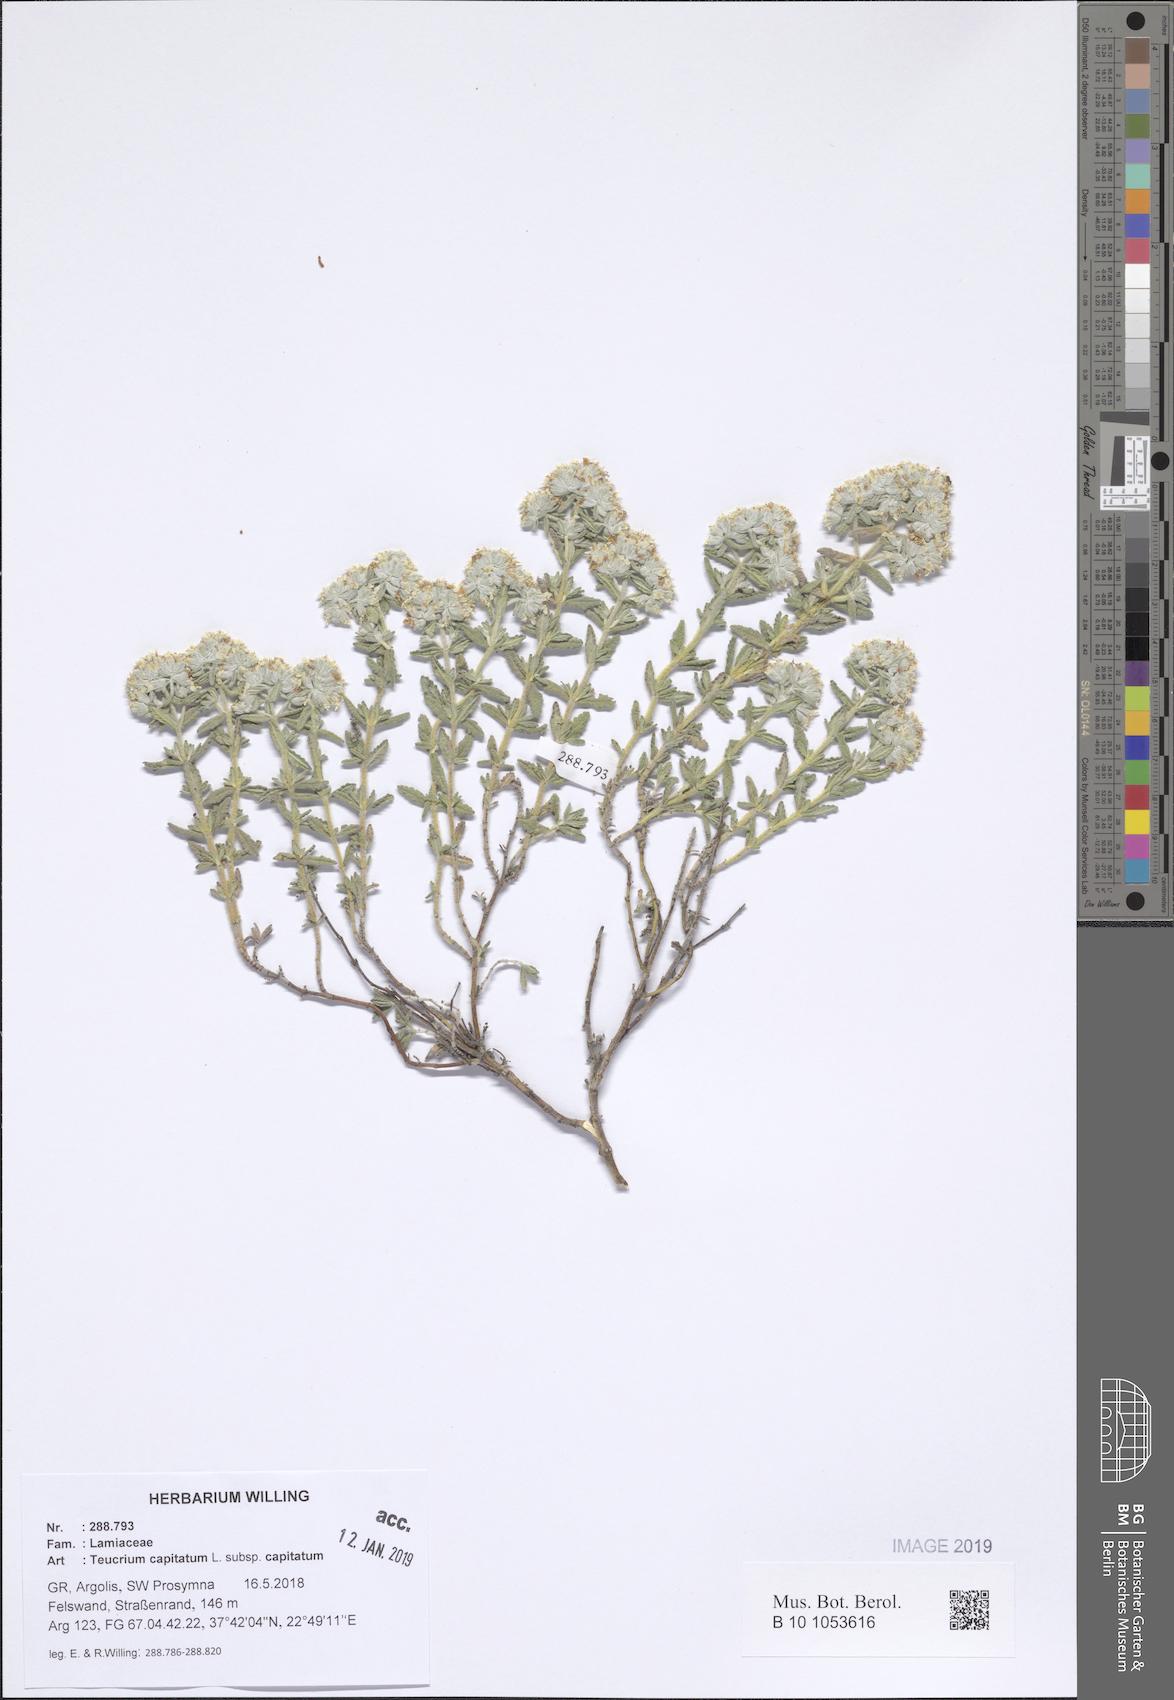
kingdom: Plantae
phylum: Tracheophyta
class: Magnoliopsida
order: Lamiales
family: Lamiaceae
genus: Teucrium
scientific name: Teucrium capitatum
